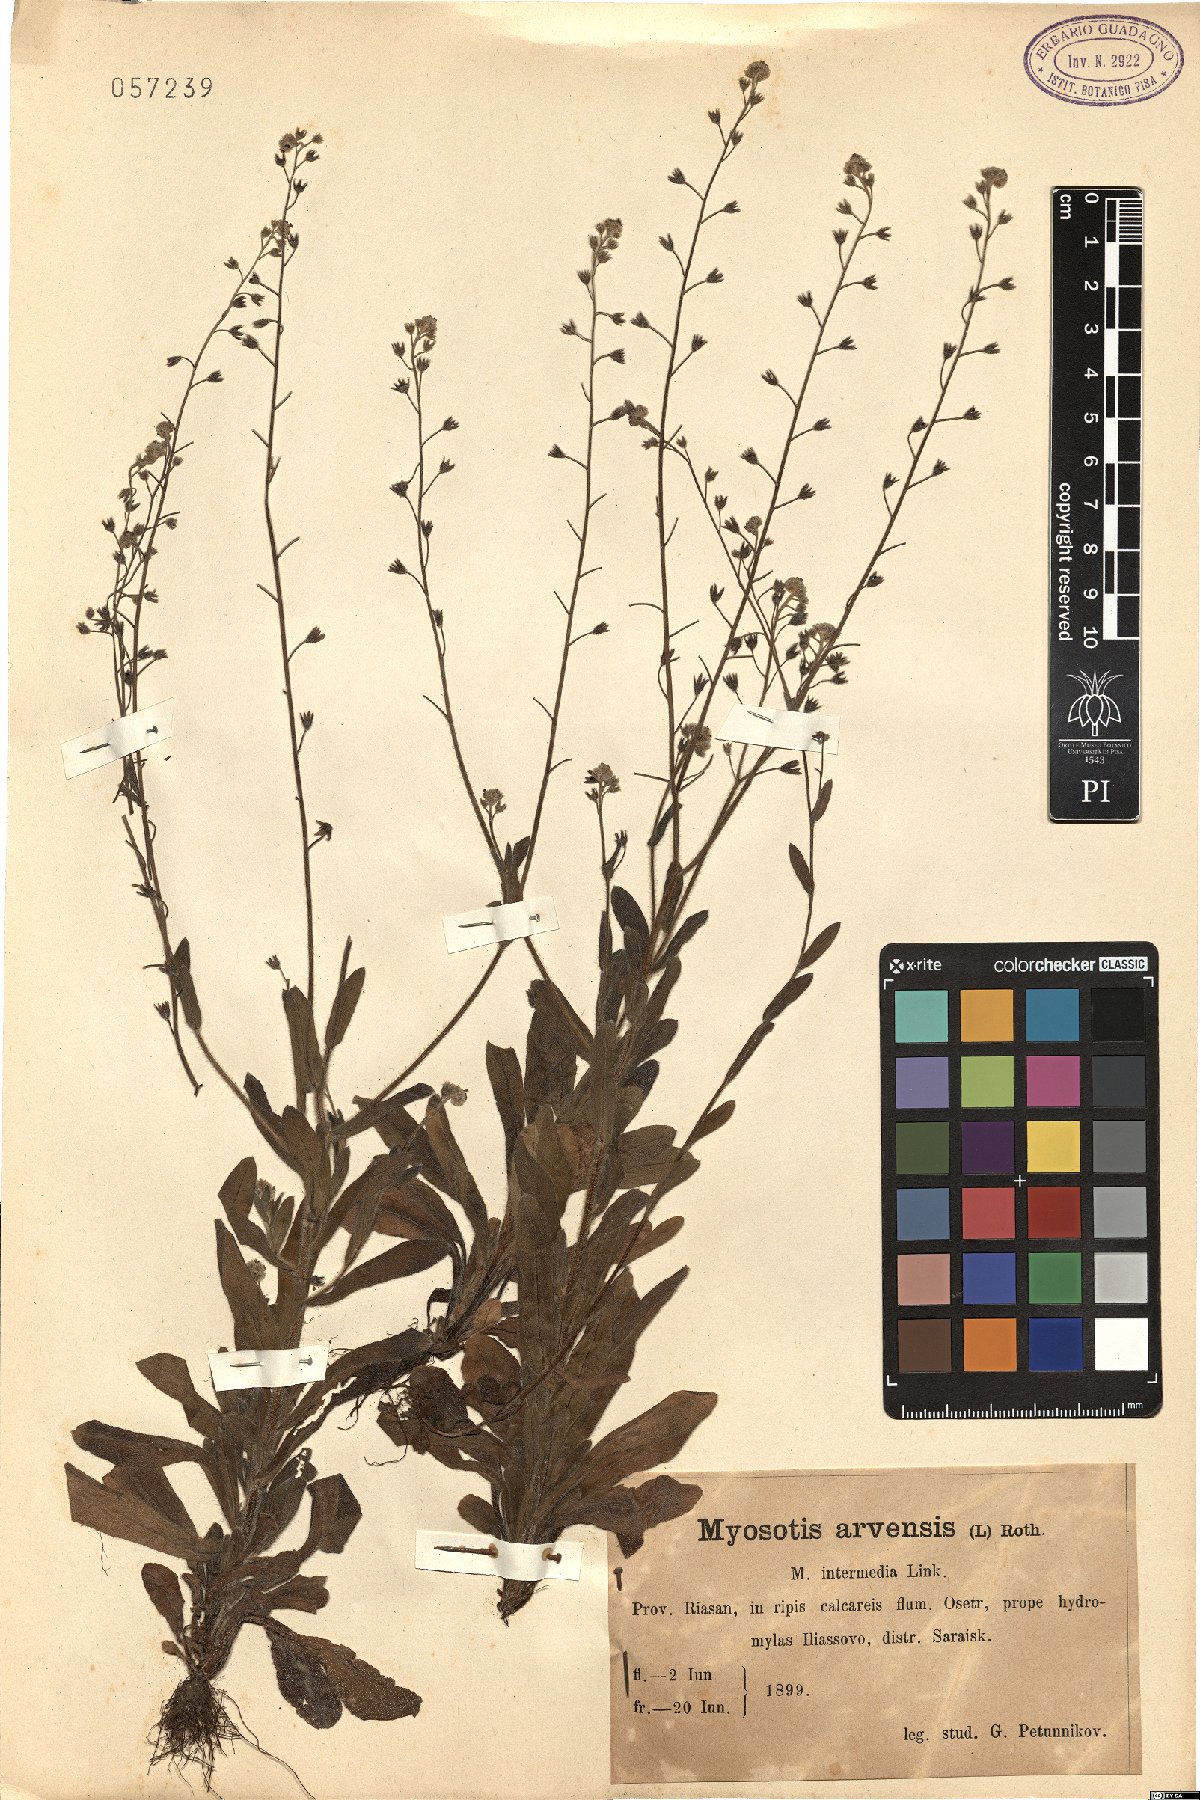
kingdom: Plantae
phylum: Tracheophyta
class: Magnoliopsida
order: Boraginales
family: Boraginaceae
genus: Myosotis
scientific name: Myosotis arvensis
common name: Field forget-me-not
